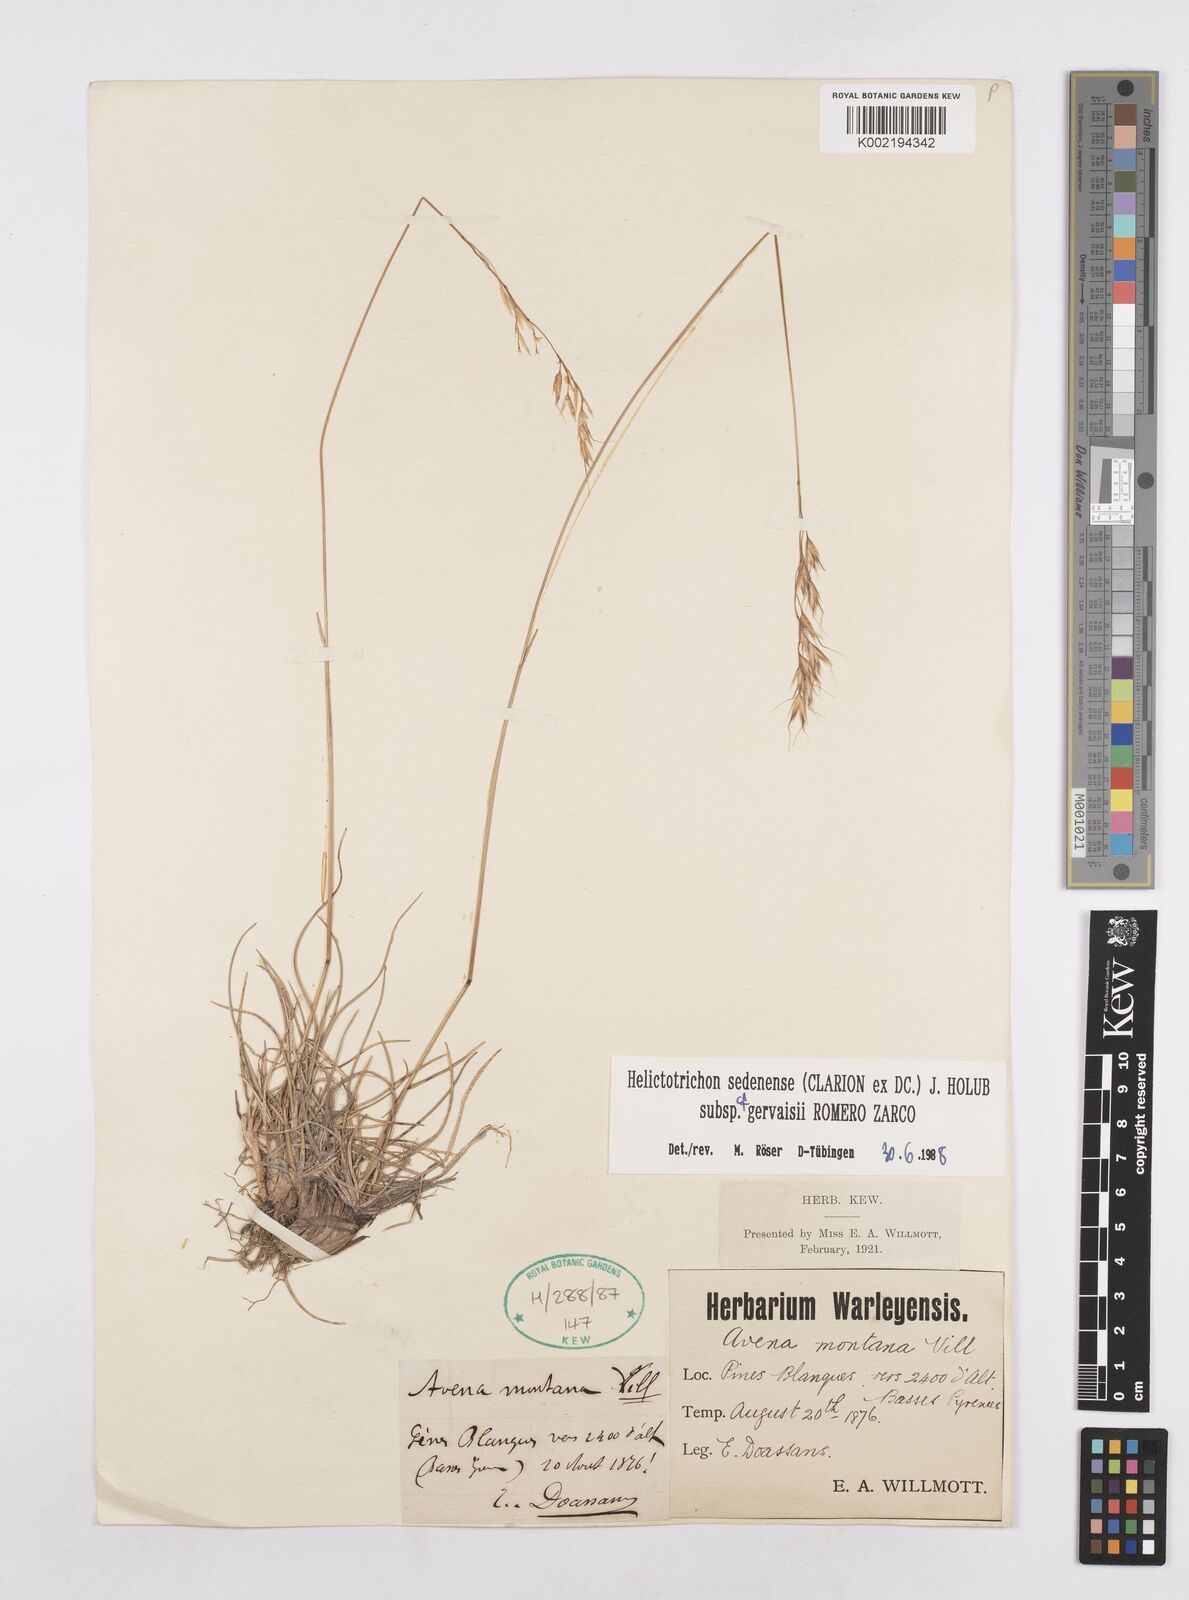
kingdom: Plantae
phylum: Tracheophyta
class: Liliopsida
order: Poales
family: Poaceae
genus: Helictotrichon
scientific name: Helictotrichon sedenense
